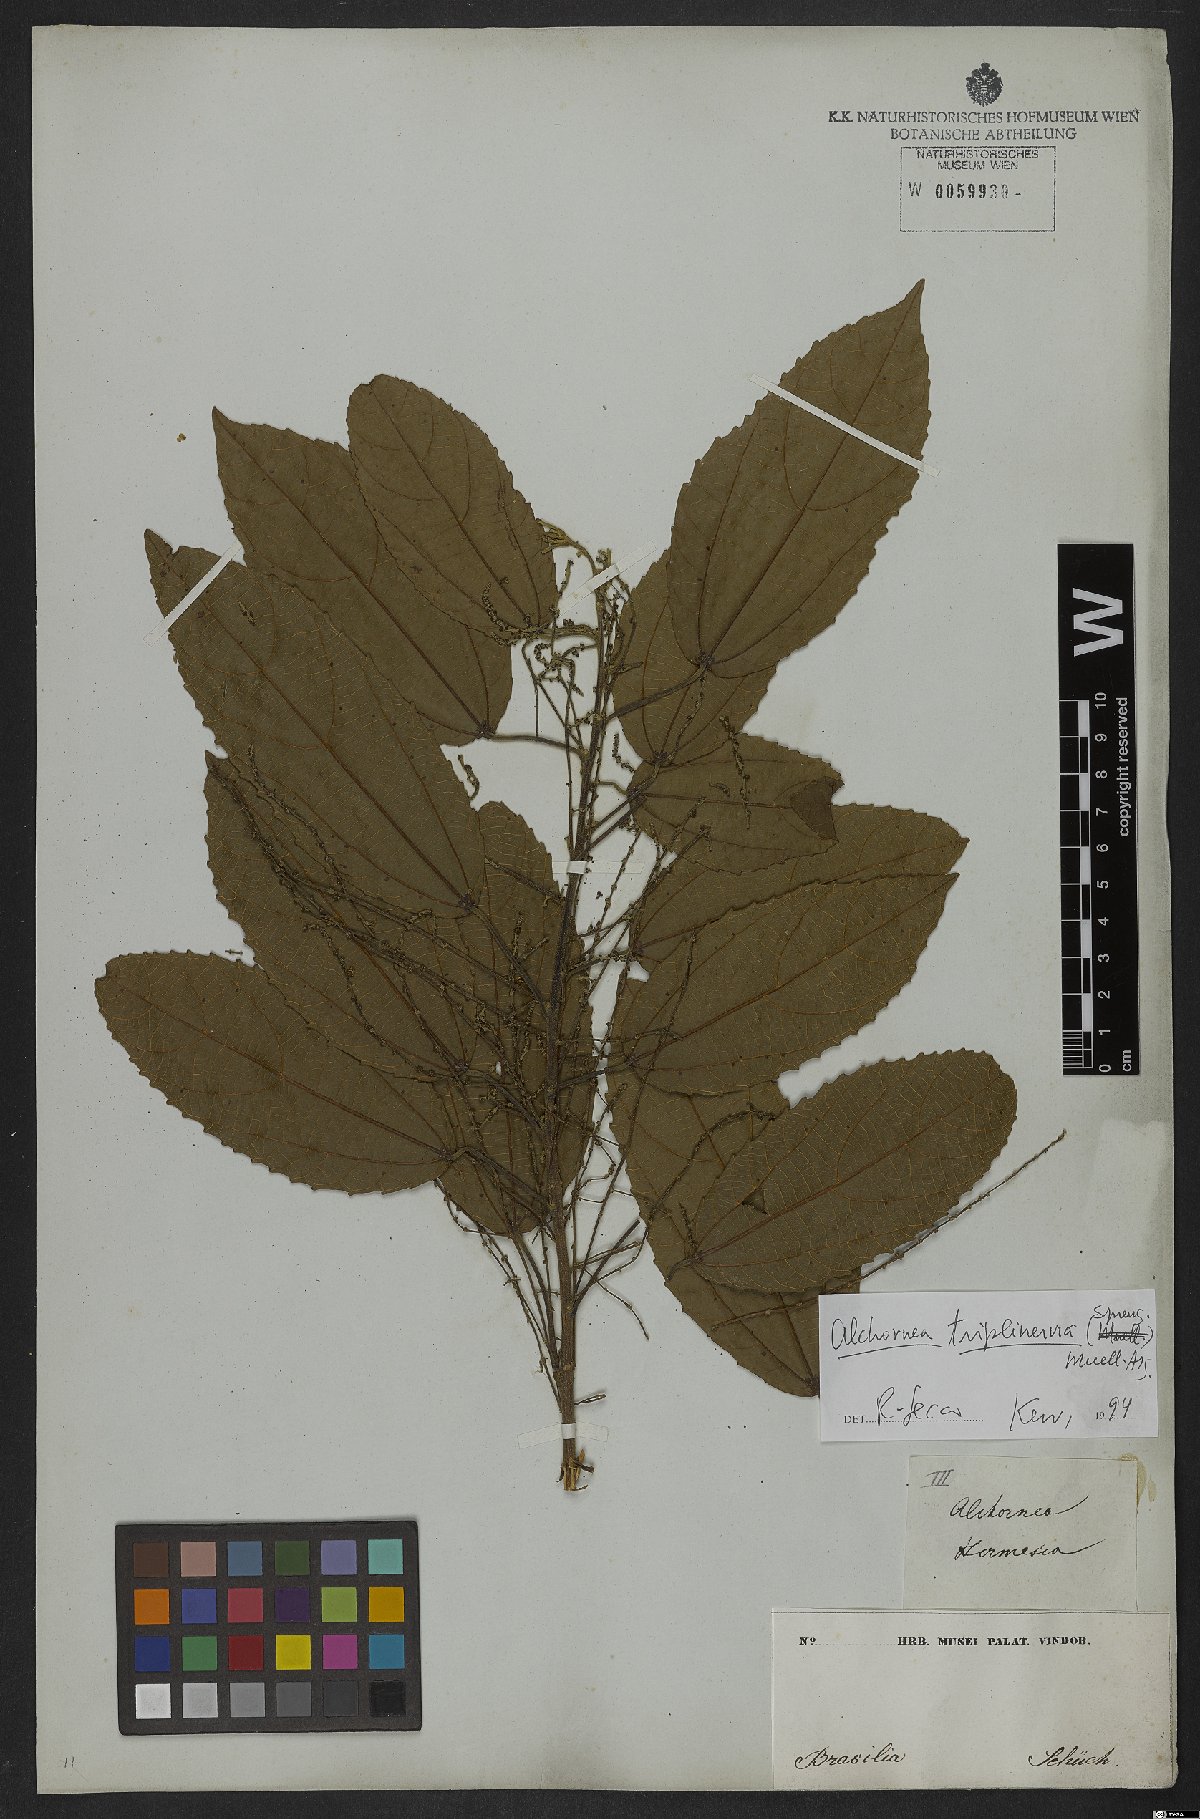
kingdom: Plantae
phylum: Tracheophyta
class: Magnoliopsida
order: Malpighiales
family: Euphorbiaceae
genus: Alchornea
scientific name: Alchornea triplinervia
